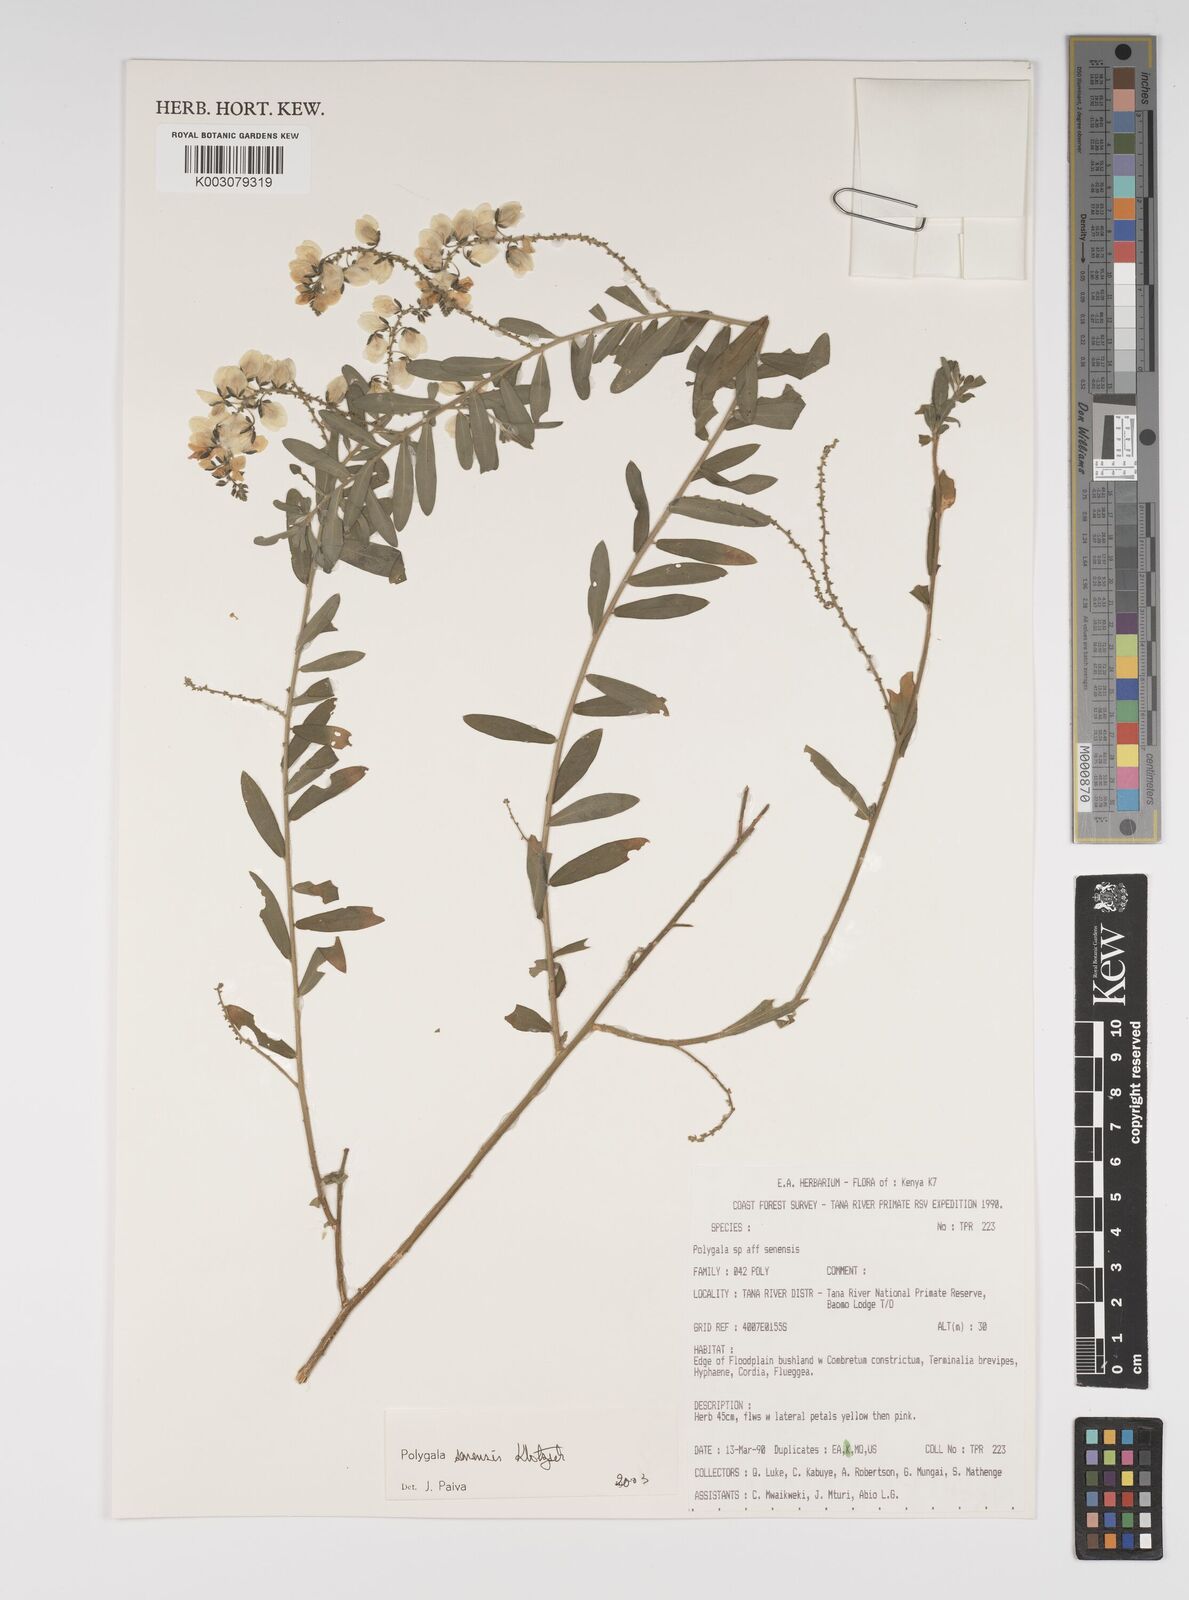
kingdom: Plantae
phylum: Tracheophyta
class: Magnoliopsida
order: Fabales
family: Polygalaceae
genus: Polygala
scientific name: Polygala senensis
